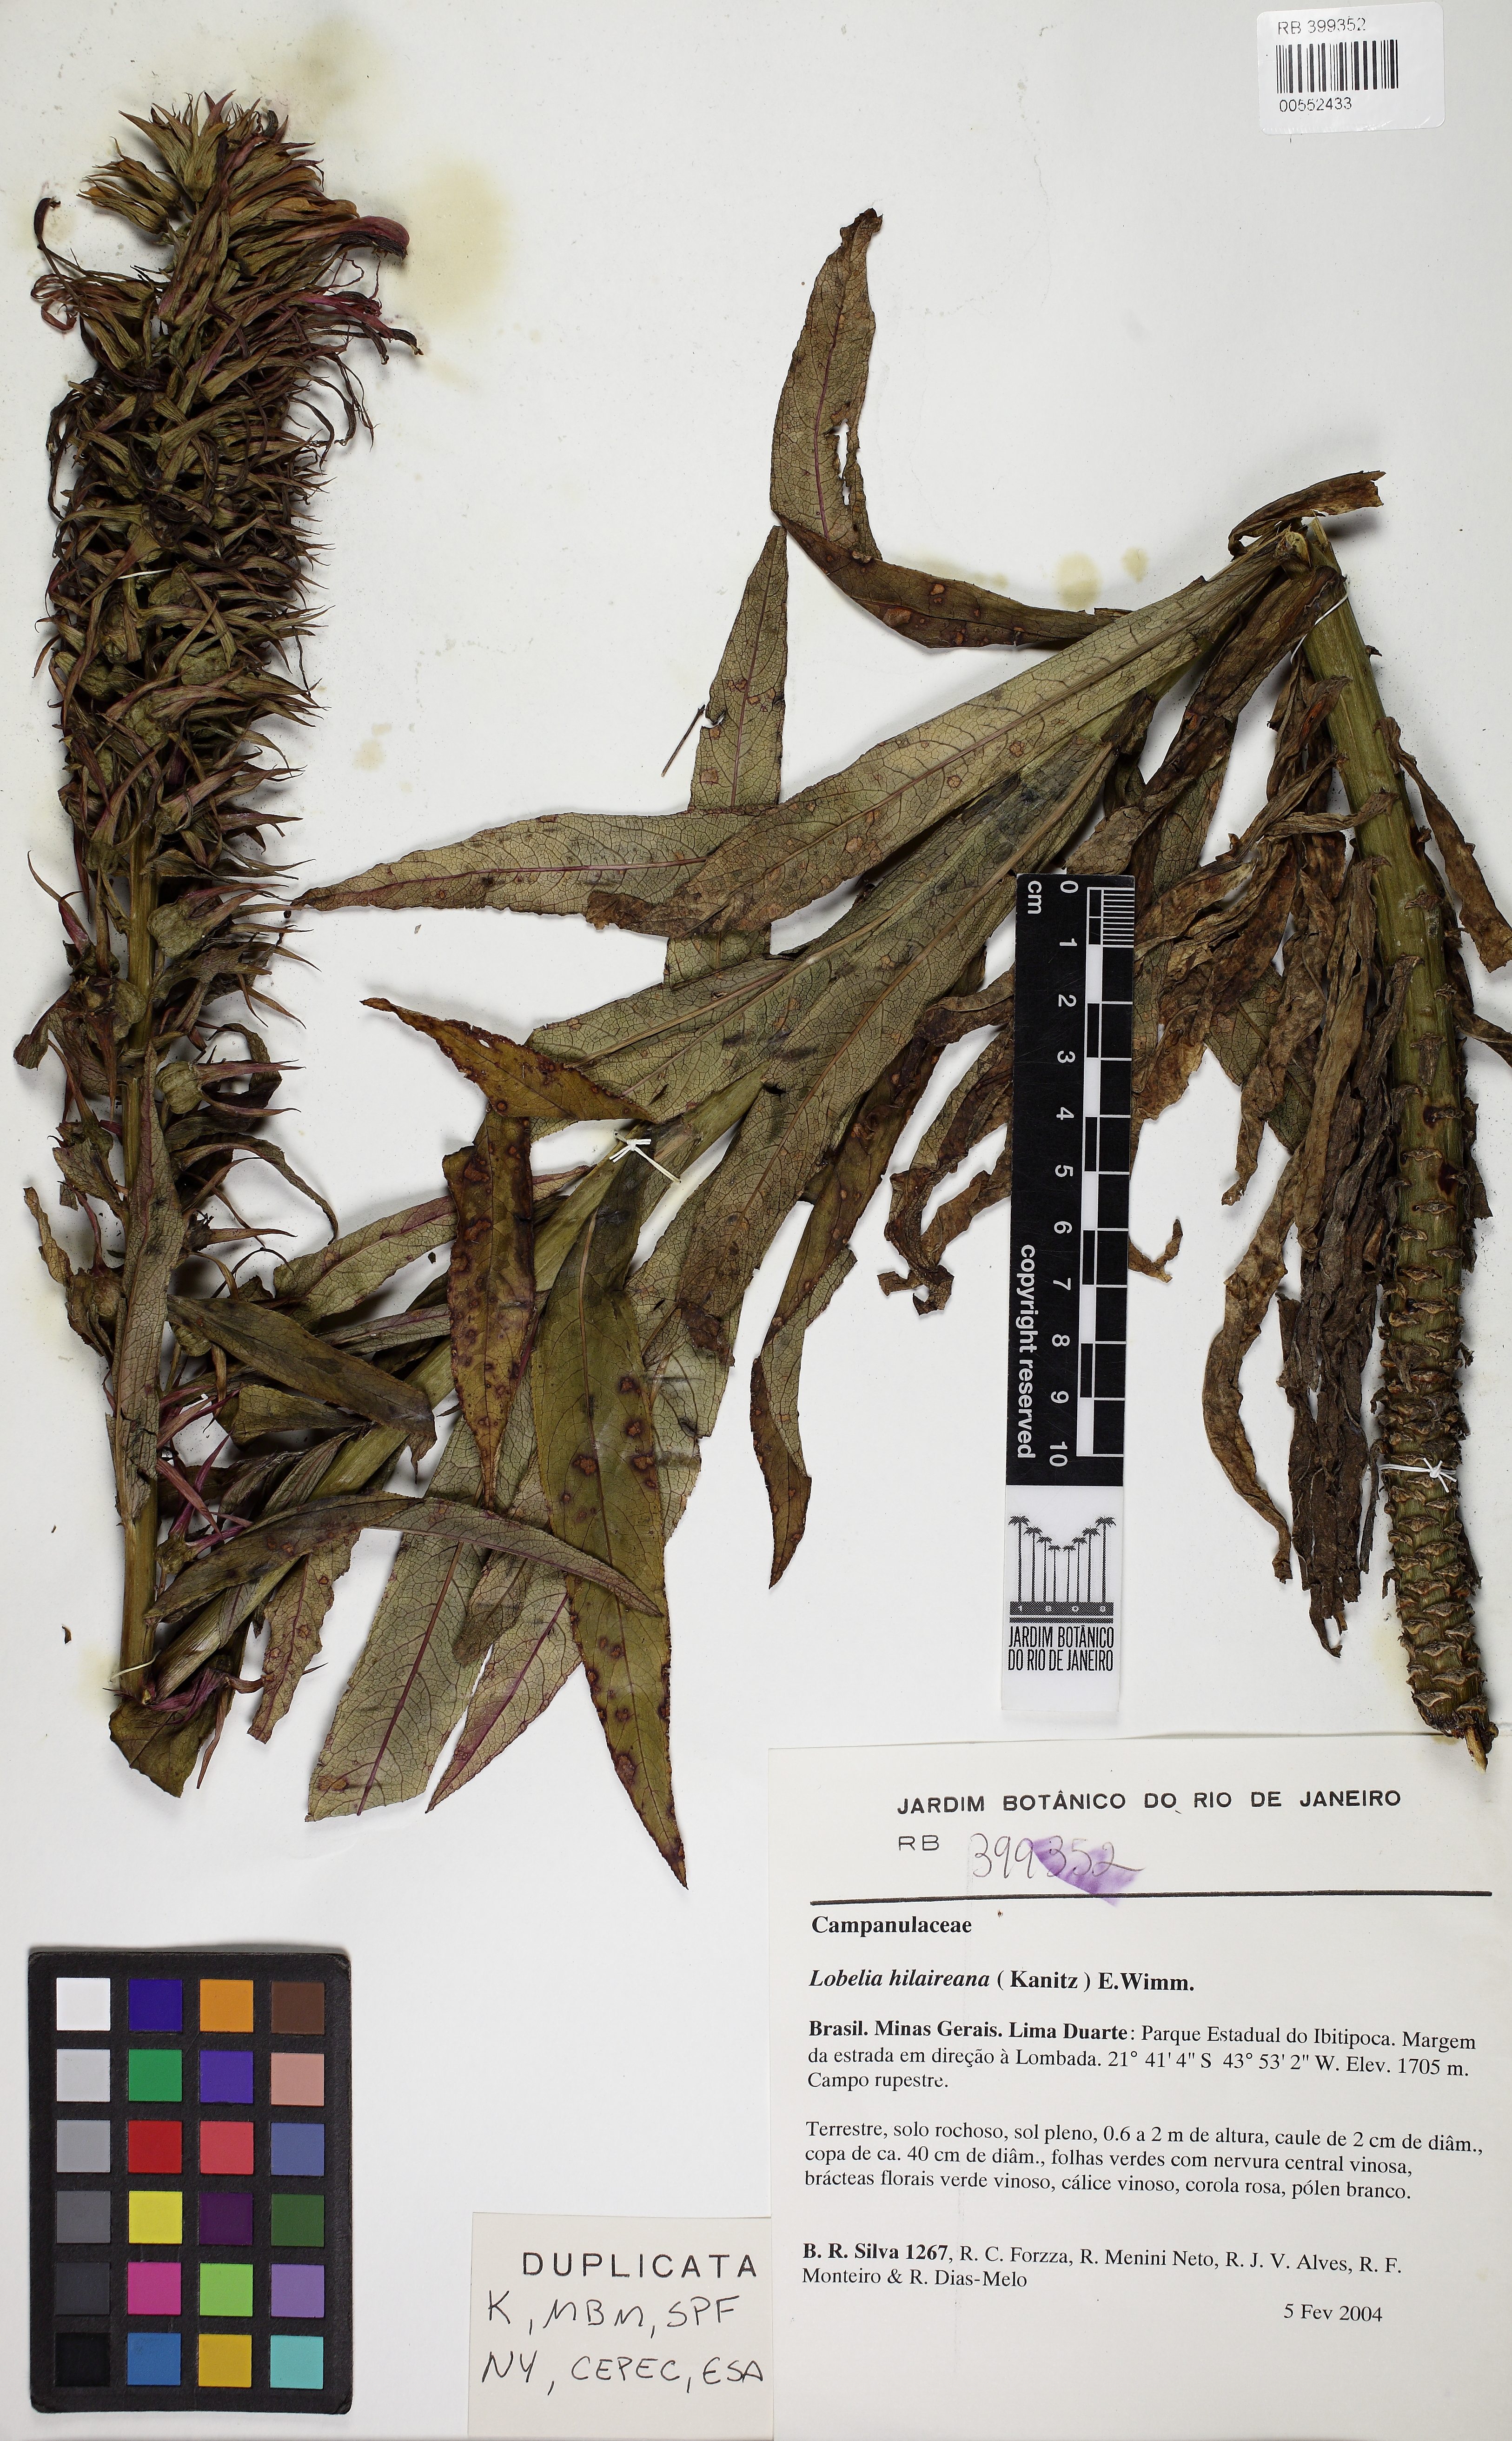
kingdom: Plantae
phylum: Tracheophyta
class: Magnoliopsida
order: Asterales
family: Campanulaceae
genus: Lobelia
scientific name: Lobelia hilaireana
